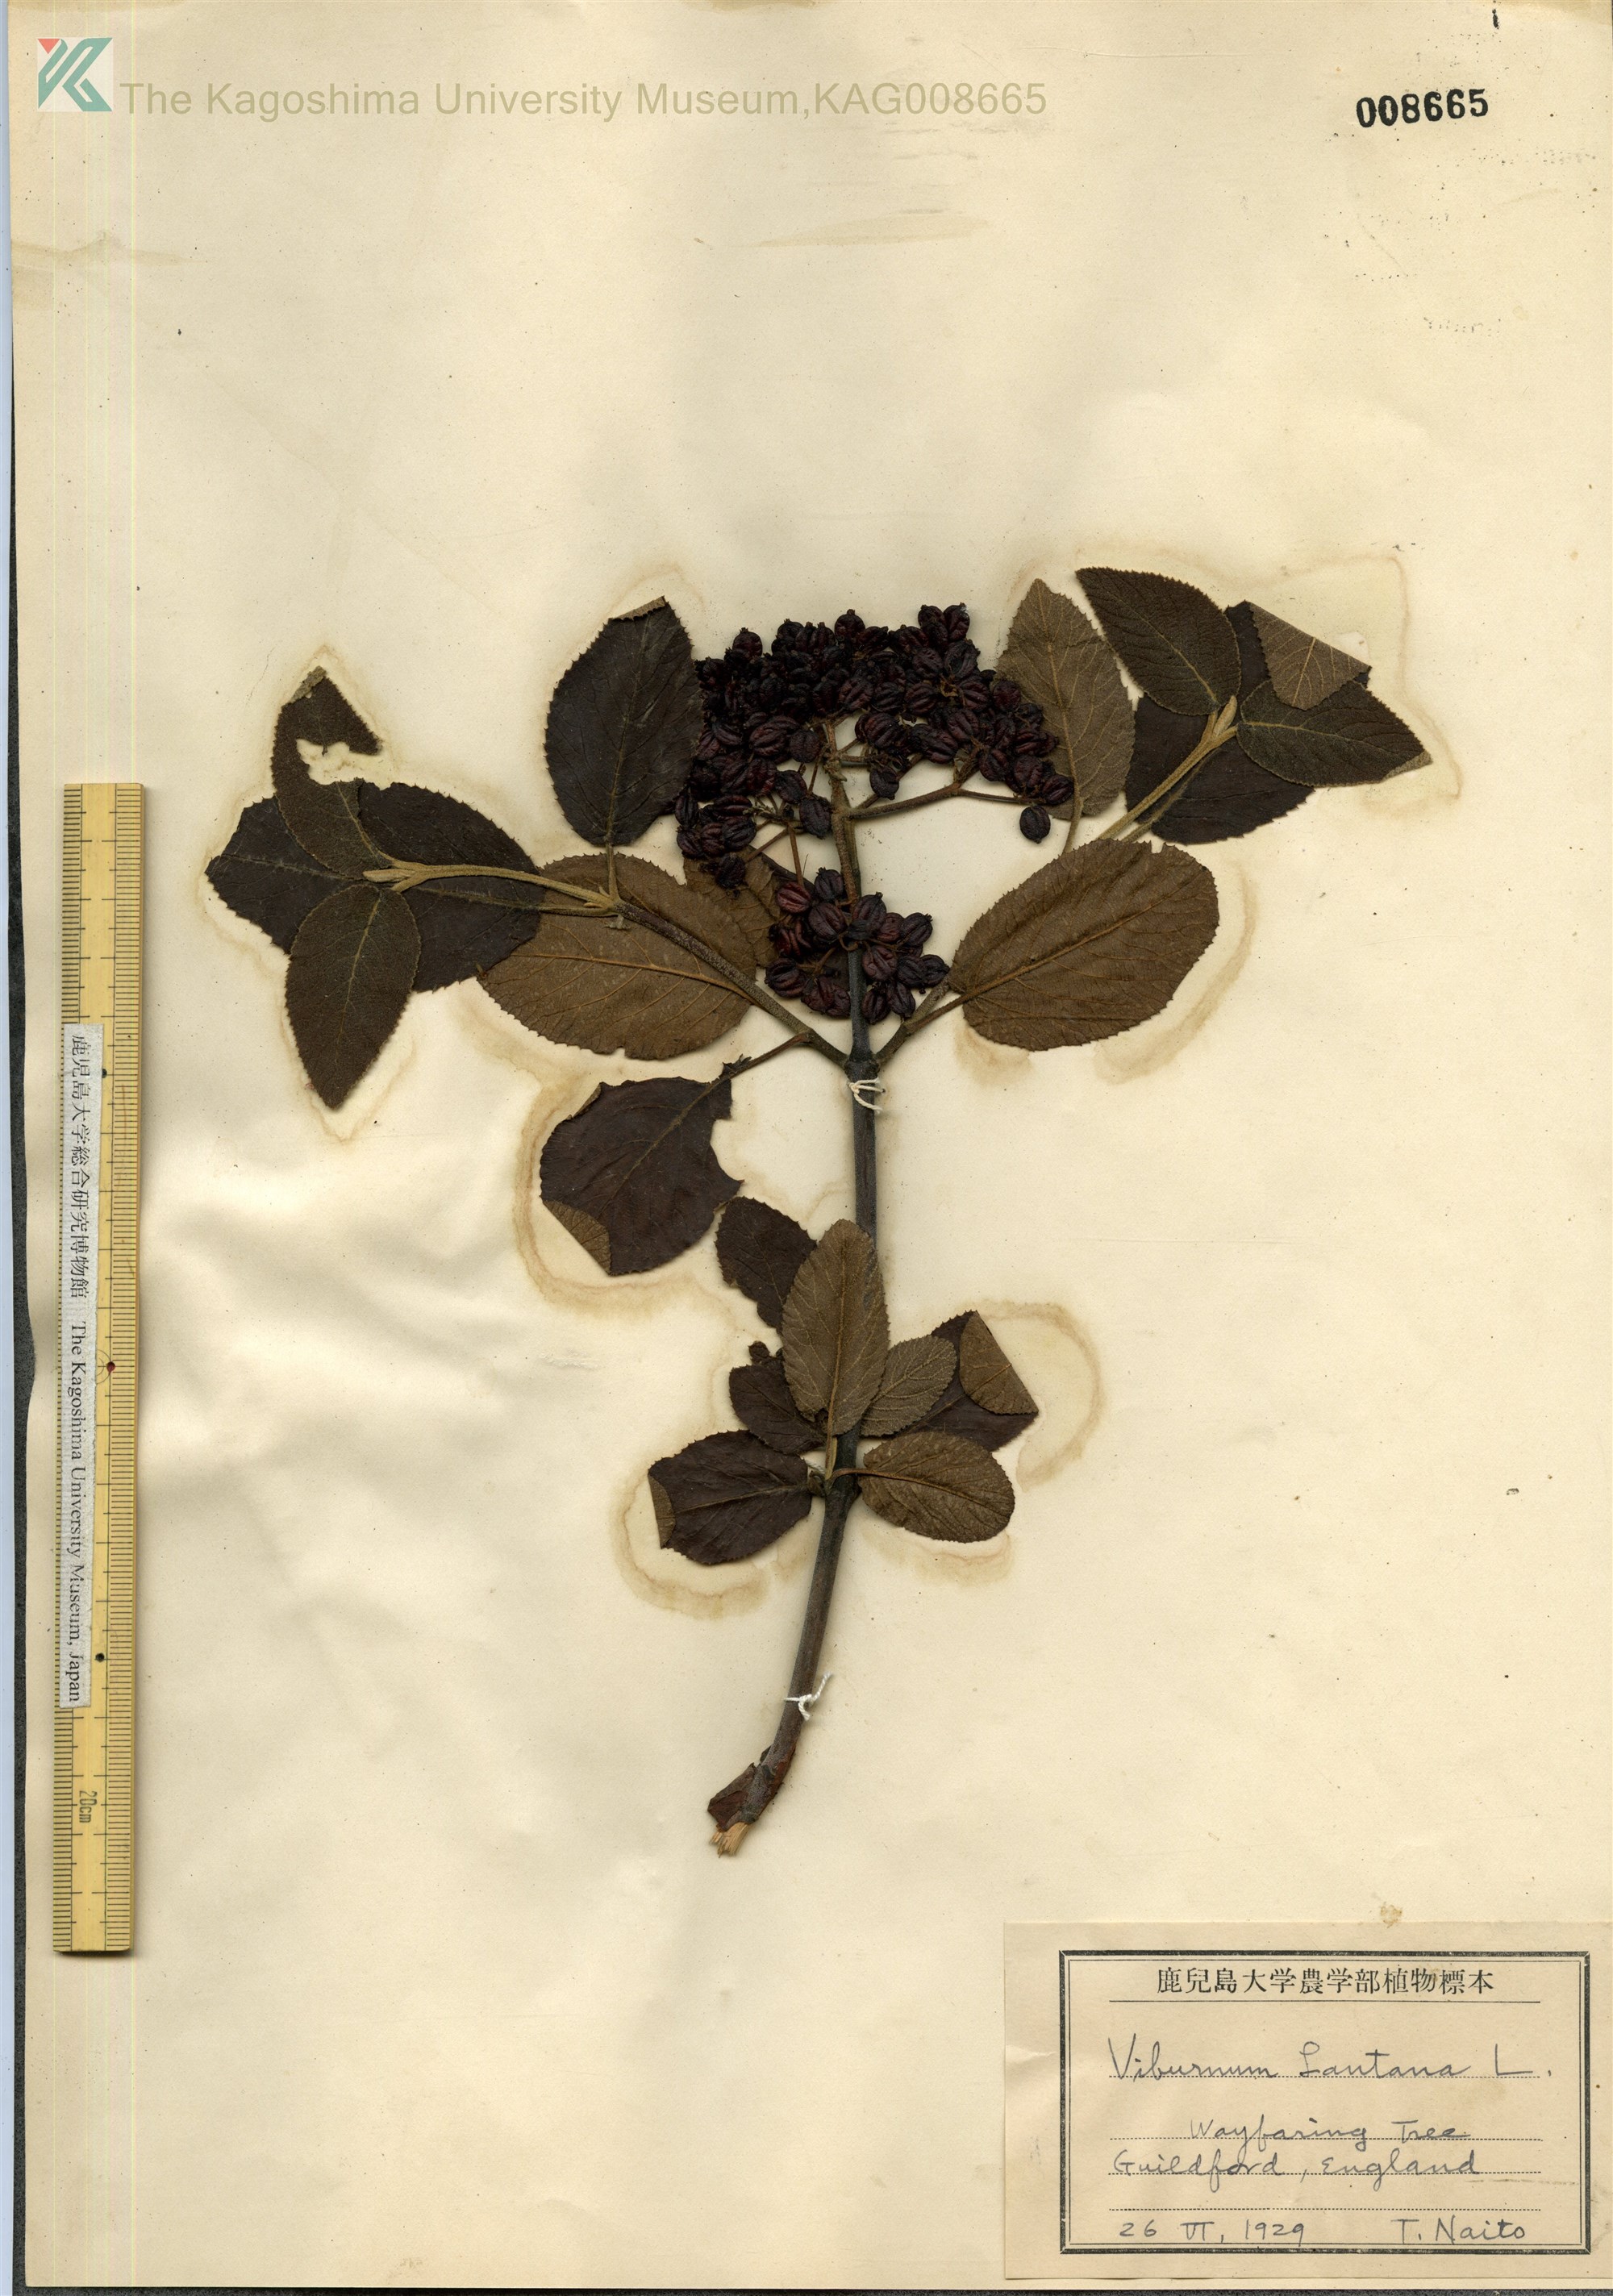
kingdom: Plantae
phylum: Tracheophyta
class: Magnoliopsida
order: Dipsacales
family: Viburnaceae
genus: Viburnum
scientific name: Viburnum lantana
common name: Wayfaring tree
